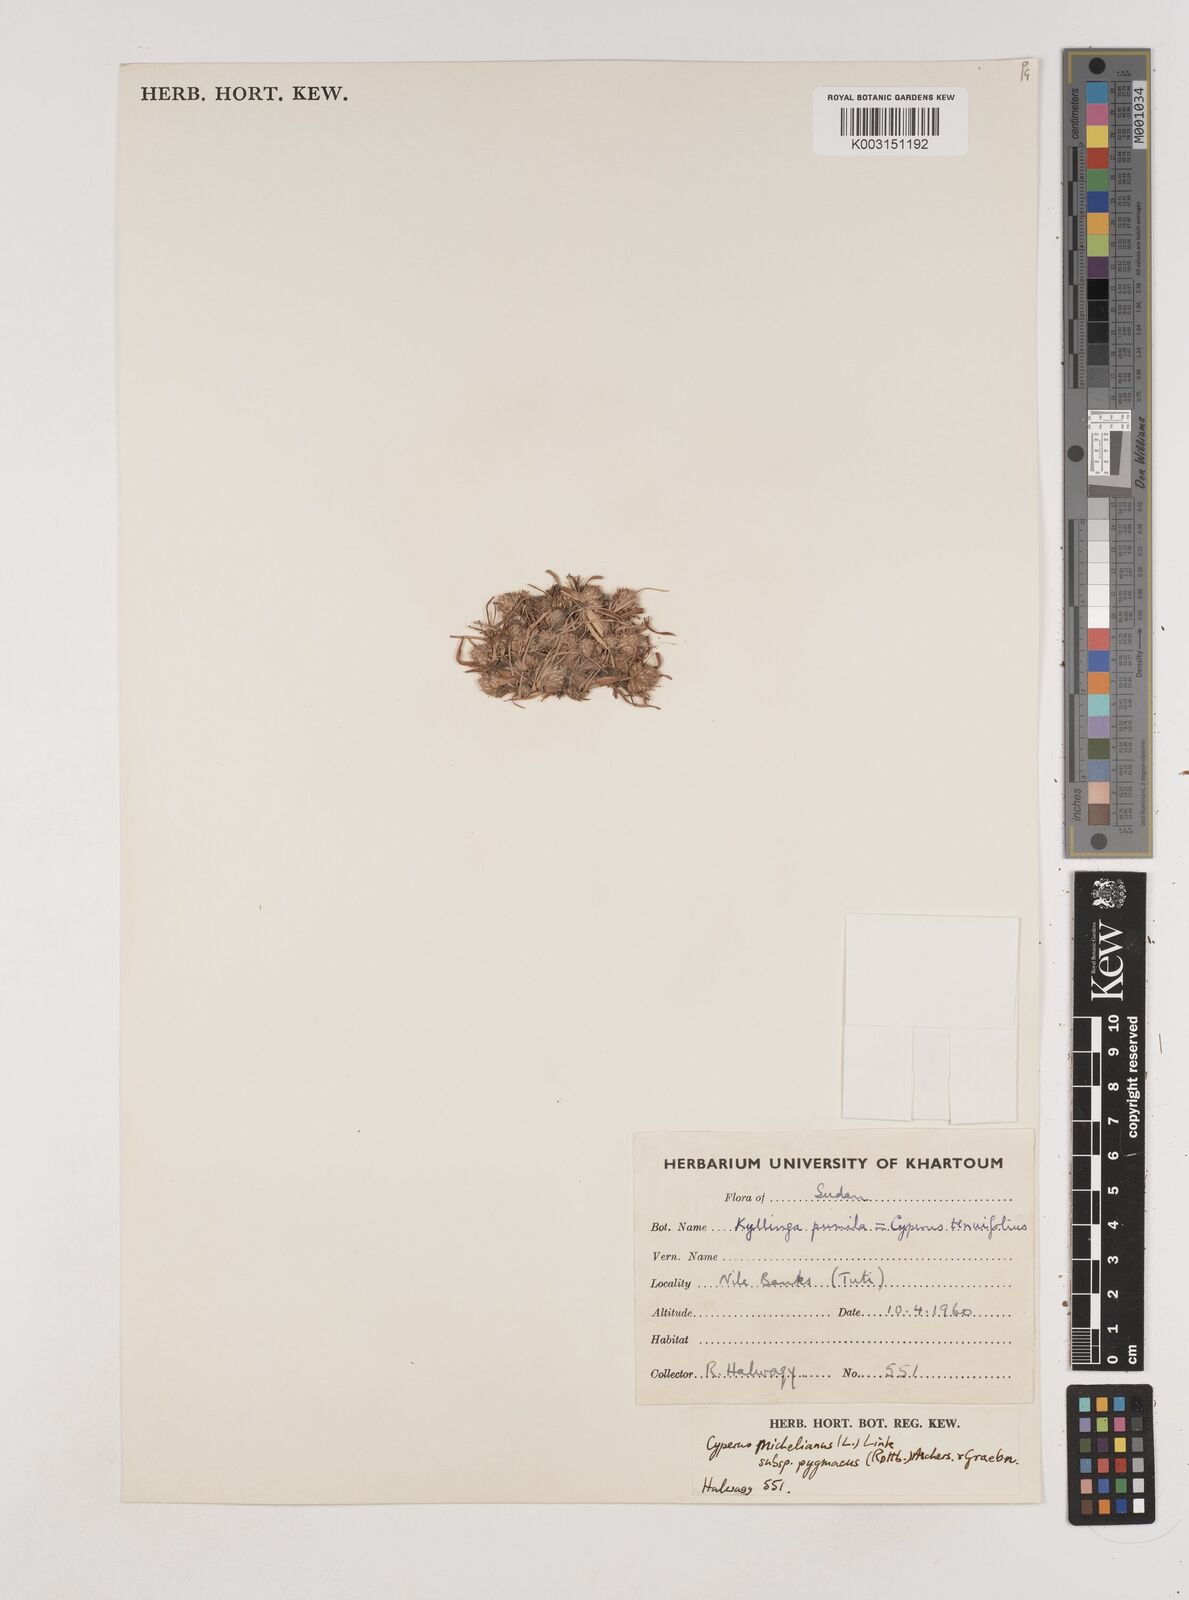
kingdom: Plantae
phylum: Tracheophyta
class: Liliopsida
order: Poales
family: Cyperaceae
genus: Cyperus
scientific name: Cyperus michelianus
